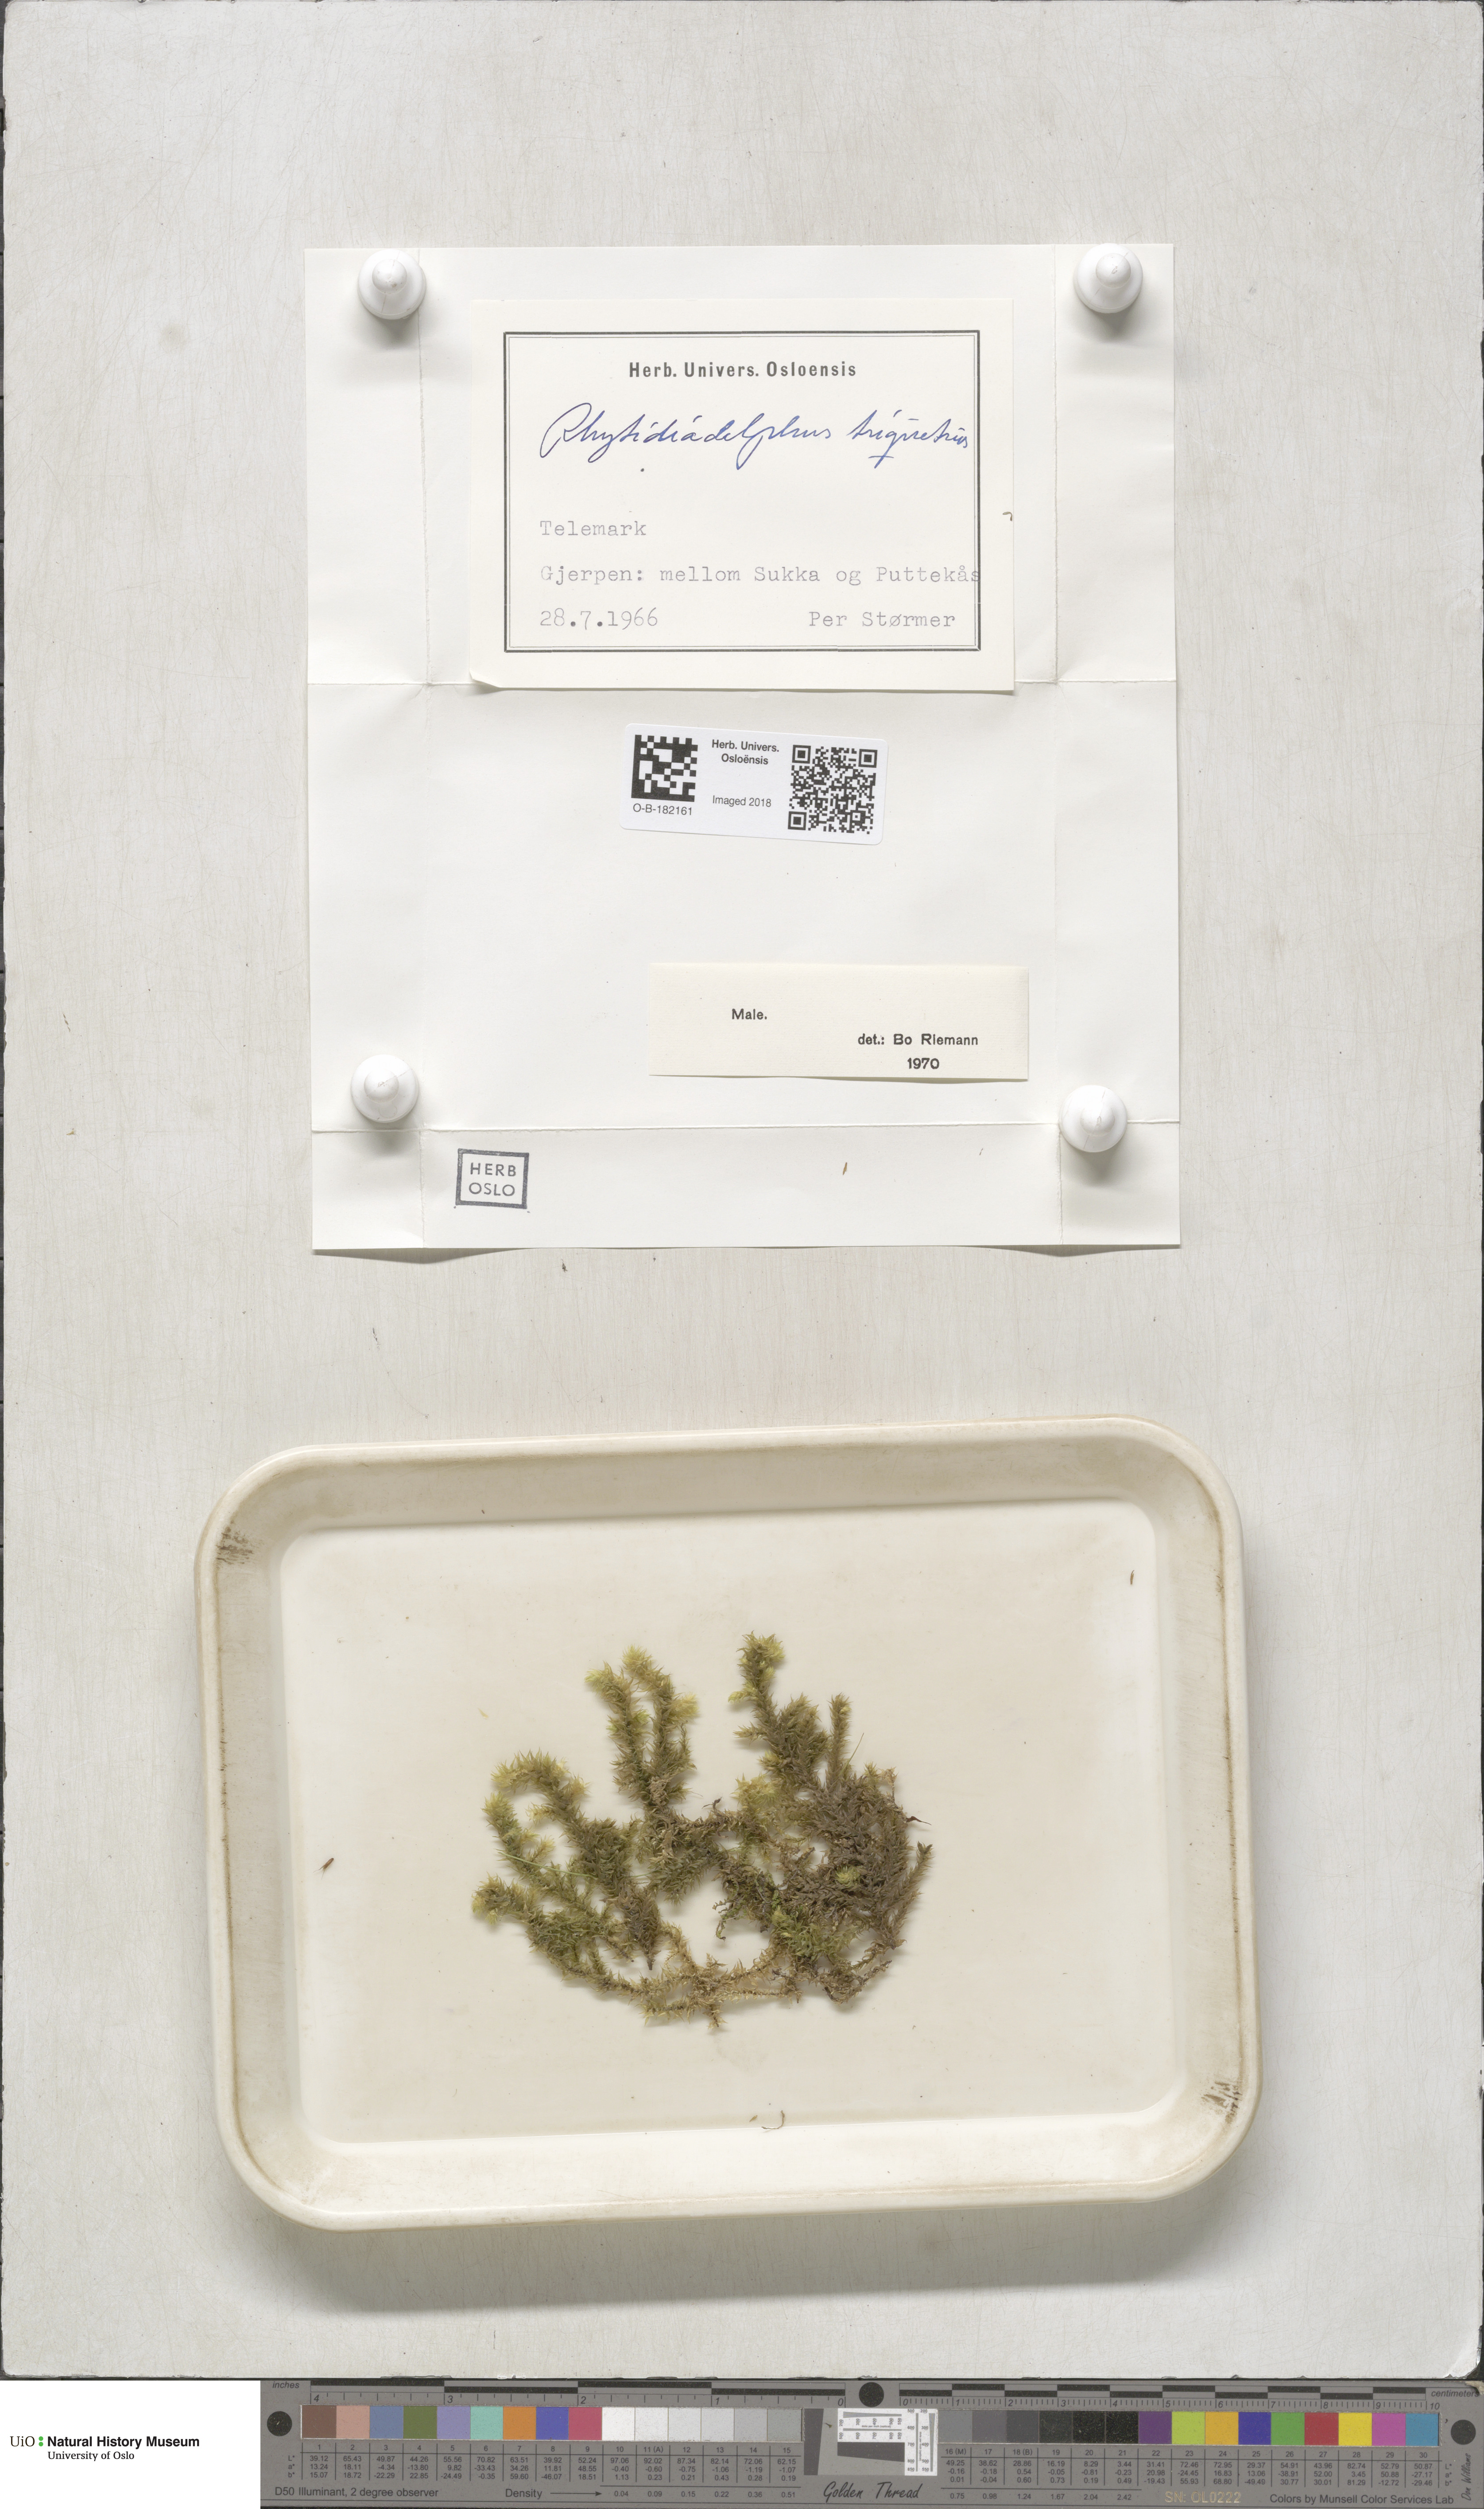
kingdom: Plantae
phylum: Bryophyta
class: Bryopsida
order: Hypnales
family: Hylocomiaceae
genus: Hylocomiadelphus
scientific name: Hylocomiadelphus triquetrus
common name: Rough goose neck moss
